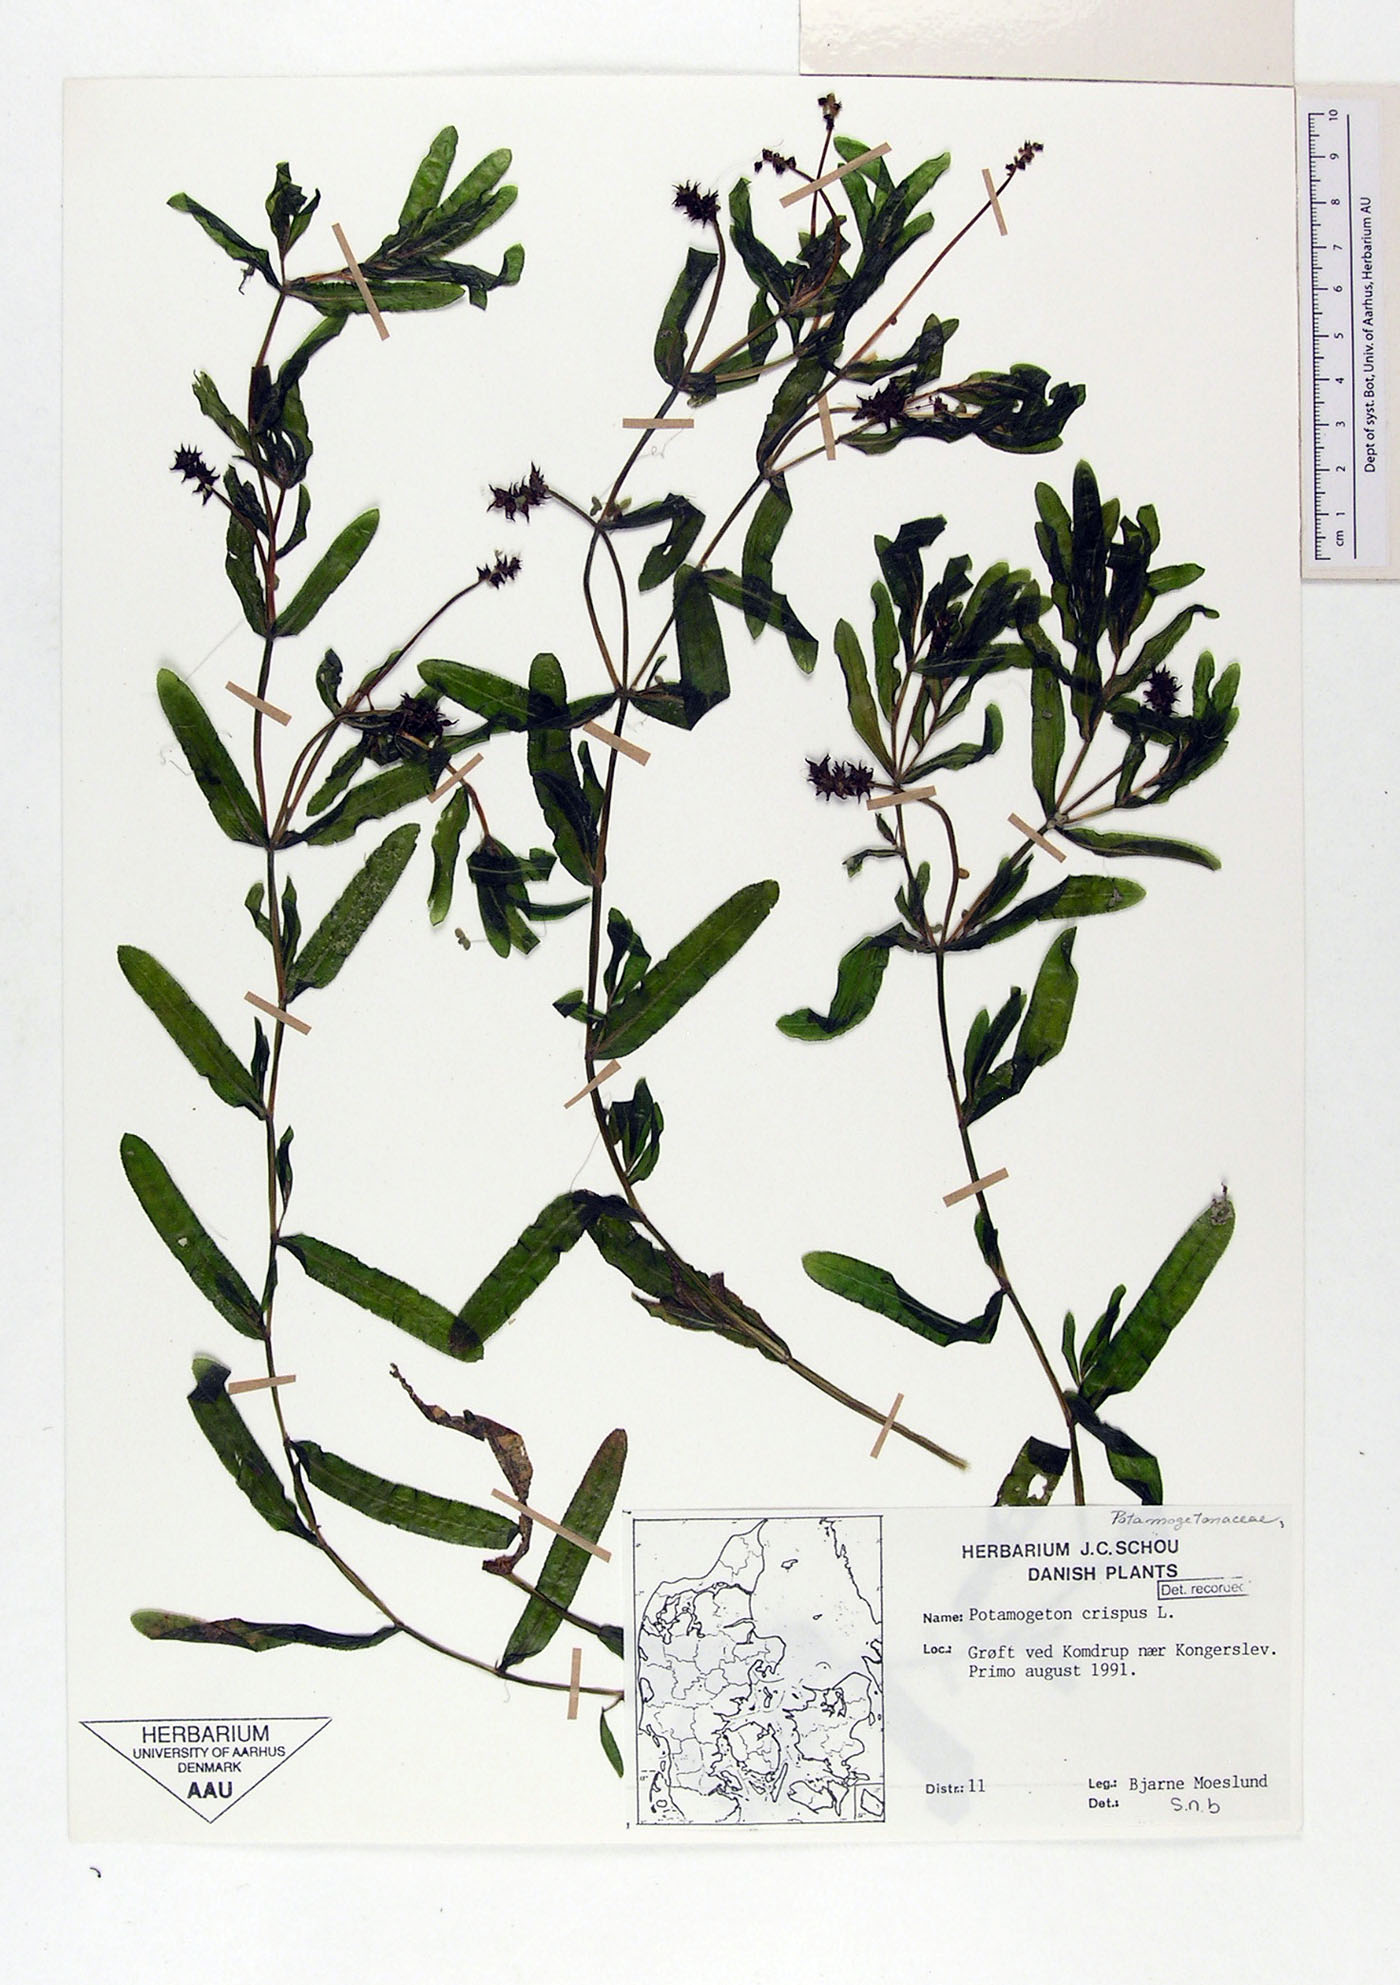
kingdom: Plantae
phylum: Tracheophyta
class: Liliopsida
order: Alismatales
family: Potamogetonaceae
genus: Potamogeton
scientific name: Potamogeton crispus
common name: Curled pondweed
